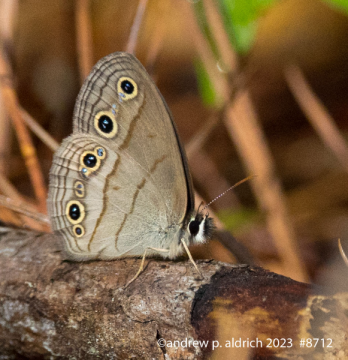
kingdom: Animalia
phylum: Arthropoda
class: Insecta
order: Lepidoptera
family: Nymphalidae
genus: Euptychia
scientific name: Euptychia cymela
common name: Little Wood Satyr
